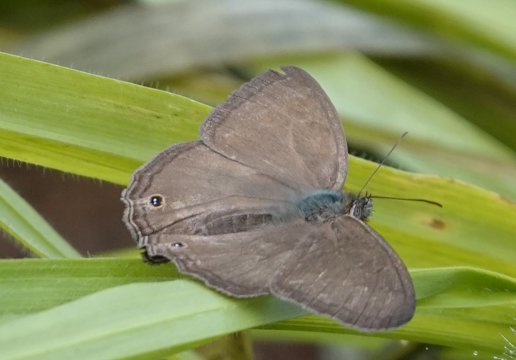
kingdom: Animalia
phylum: Arthropoda
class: Insecta
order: Lepidoptera
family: Nymphalidae
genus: Euptychia
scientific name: Euptychia
